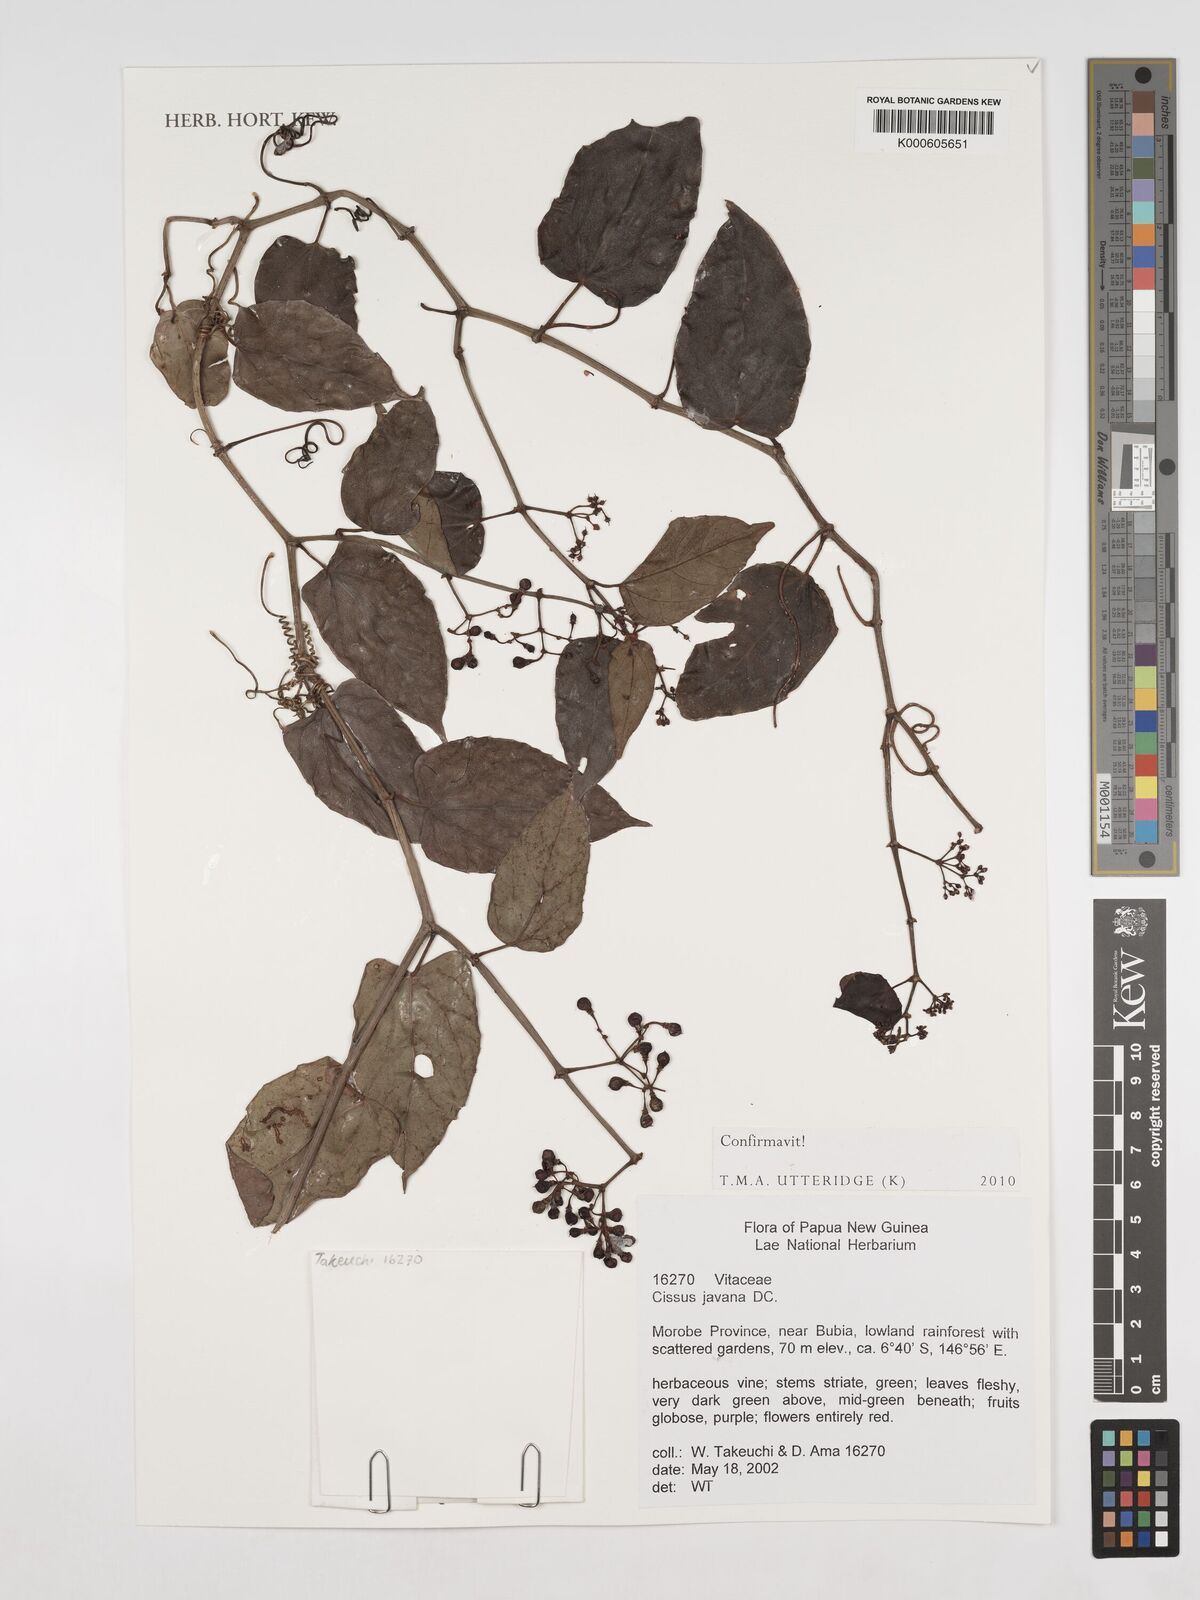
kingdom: Plantae
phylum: Tracheophyta
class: Magnoliopsida
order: Vitales
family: Vitaceae
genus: Cissus
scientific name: Cissus discolor
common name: Climbing-begonia
